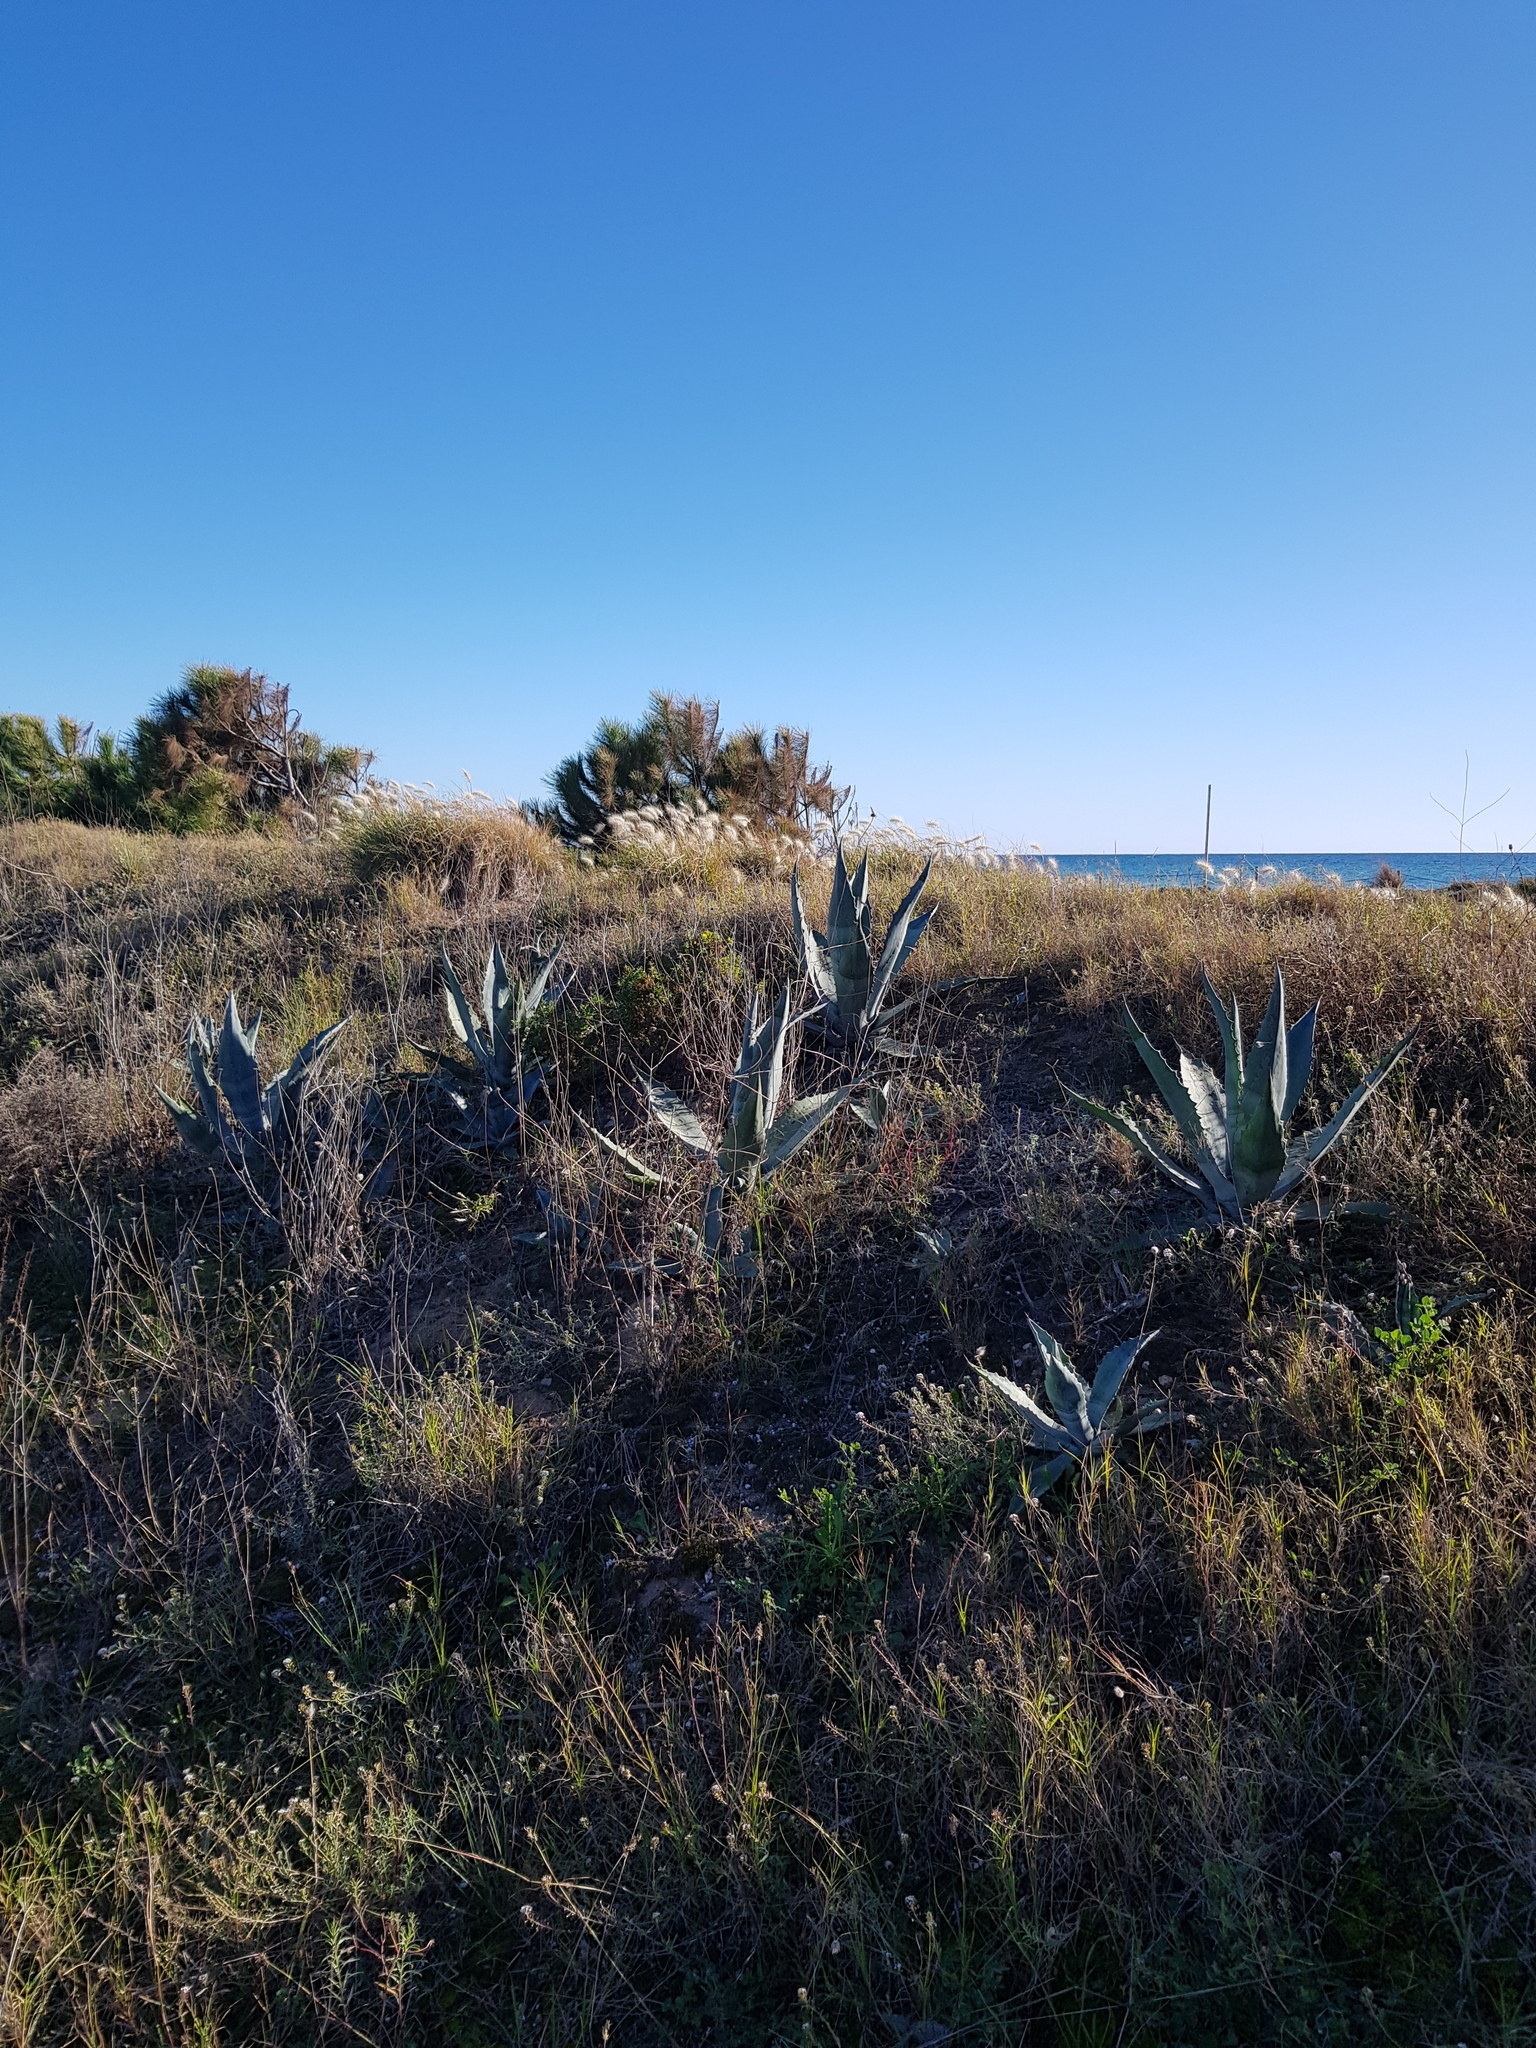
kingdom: Plantae
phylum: Tracheophyta
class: Liliopsida
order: Asparagales
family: Asparagaceae
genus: Agave
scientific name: Agave americana
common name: Centuryplant
